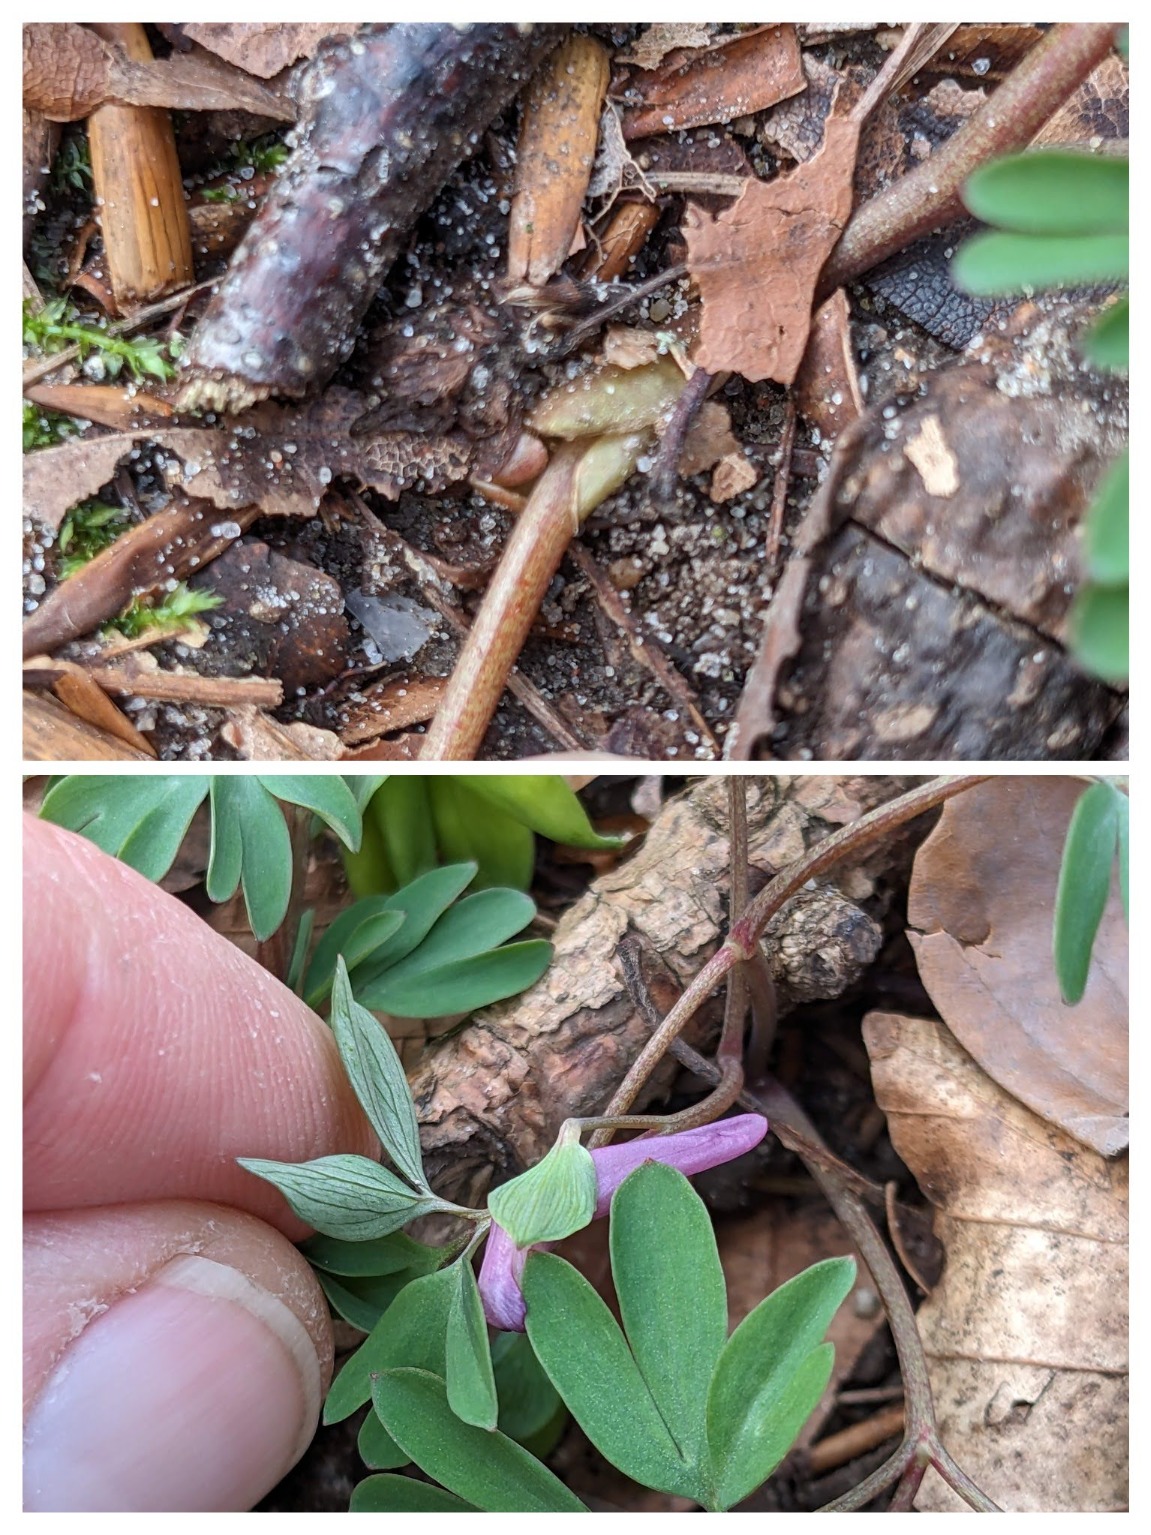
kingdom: Plantae
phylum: Tracheophyta
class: Magnoliopsida
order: Ranunculales
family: Papaveraceae
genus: Corydalis
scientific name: Corydalis intermedia
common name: Liden lærkespore
